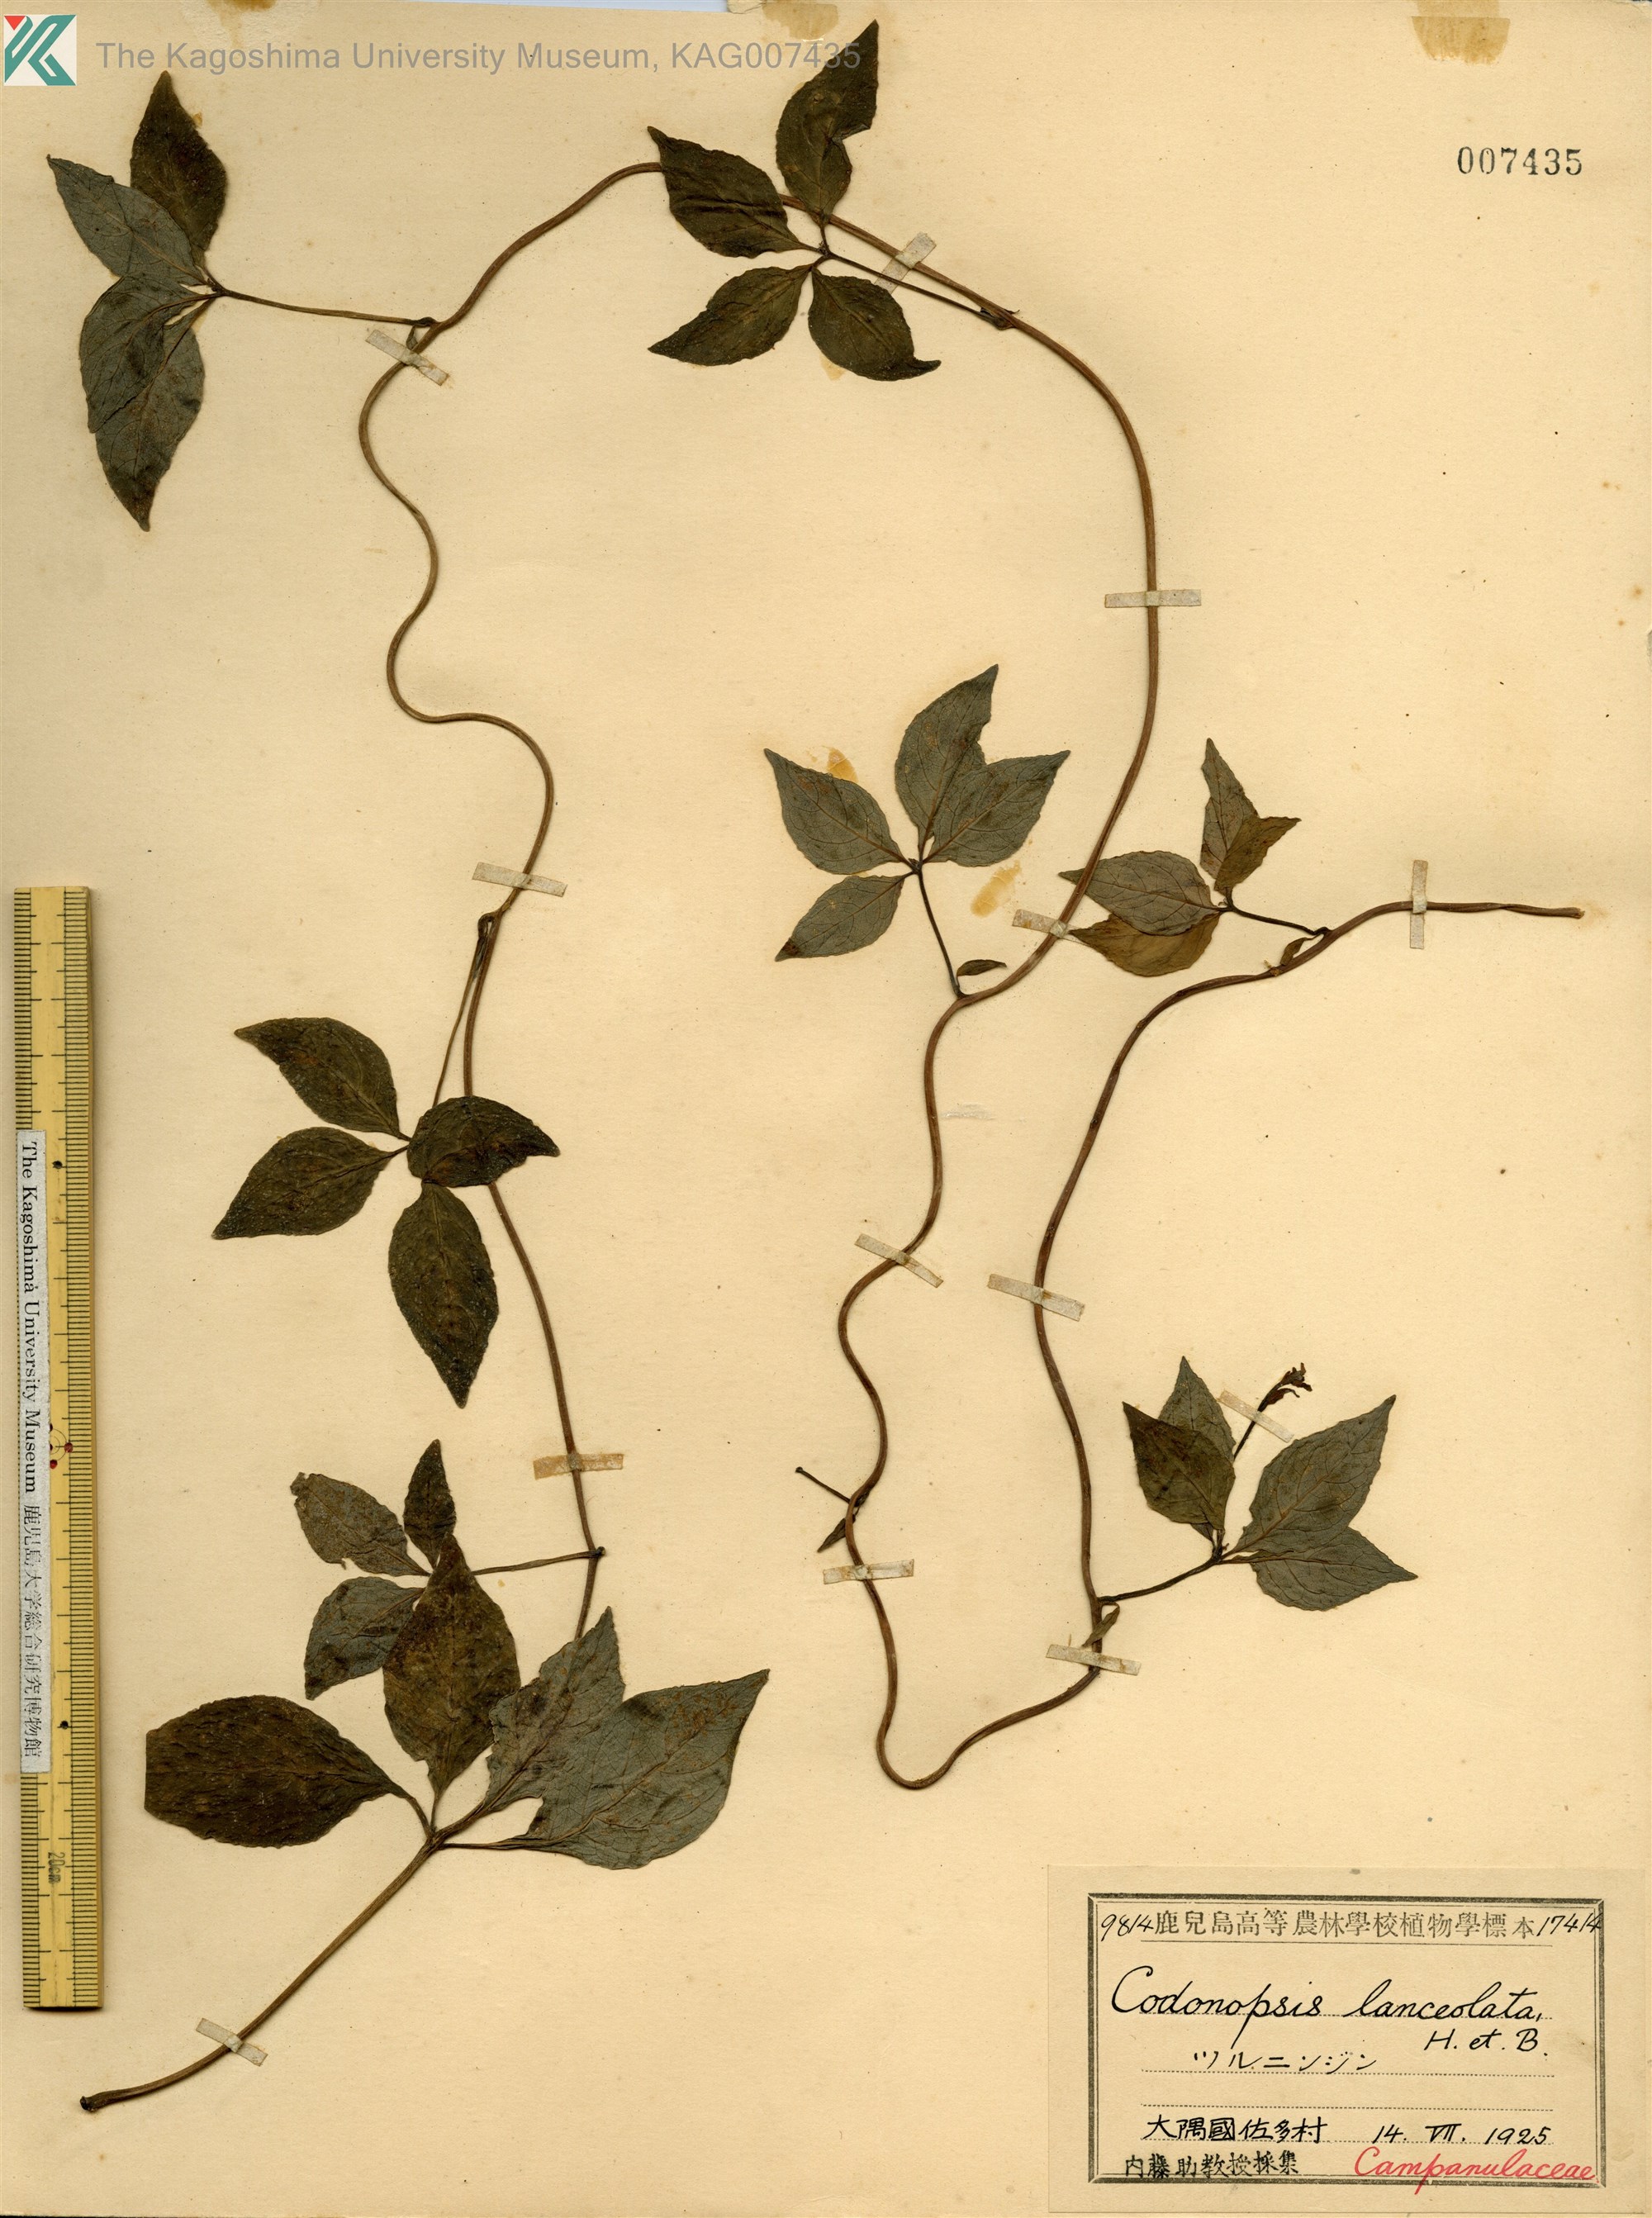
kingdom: Plantae
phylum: Tracheophyta
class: Magnoliopsida
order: Asterales
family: Campanulaceae
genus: Codonopsis
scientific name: Codonopsis lanceolata
